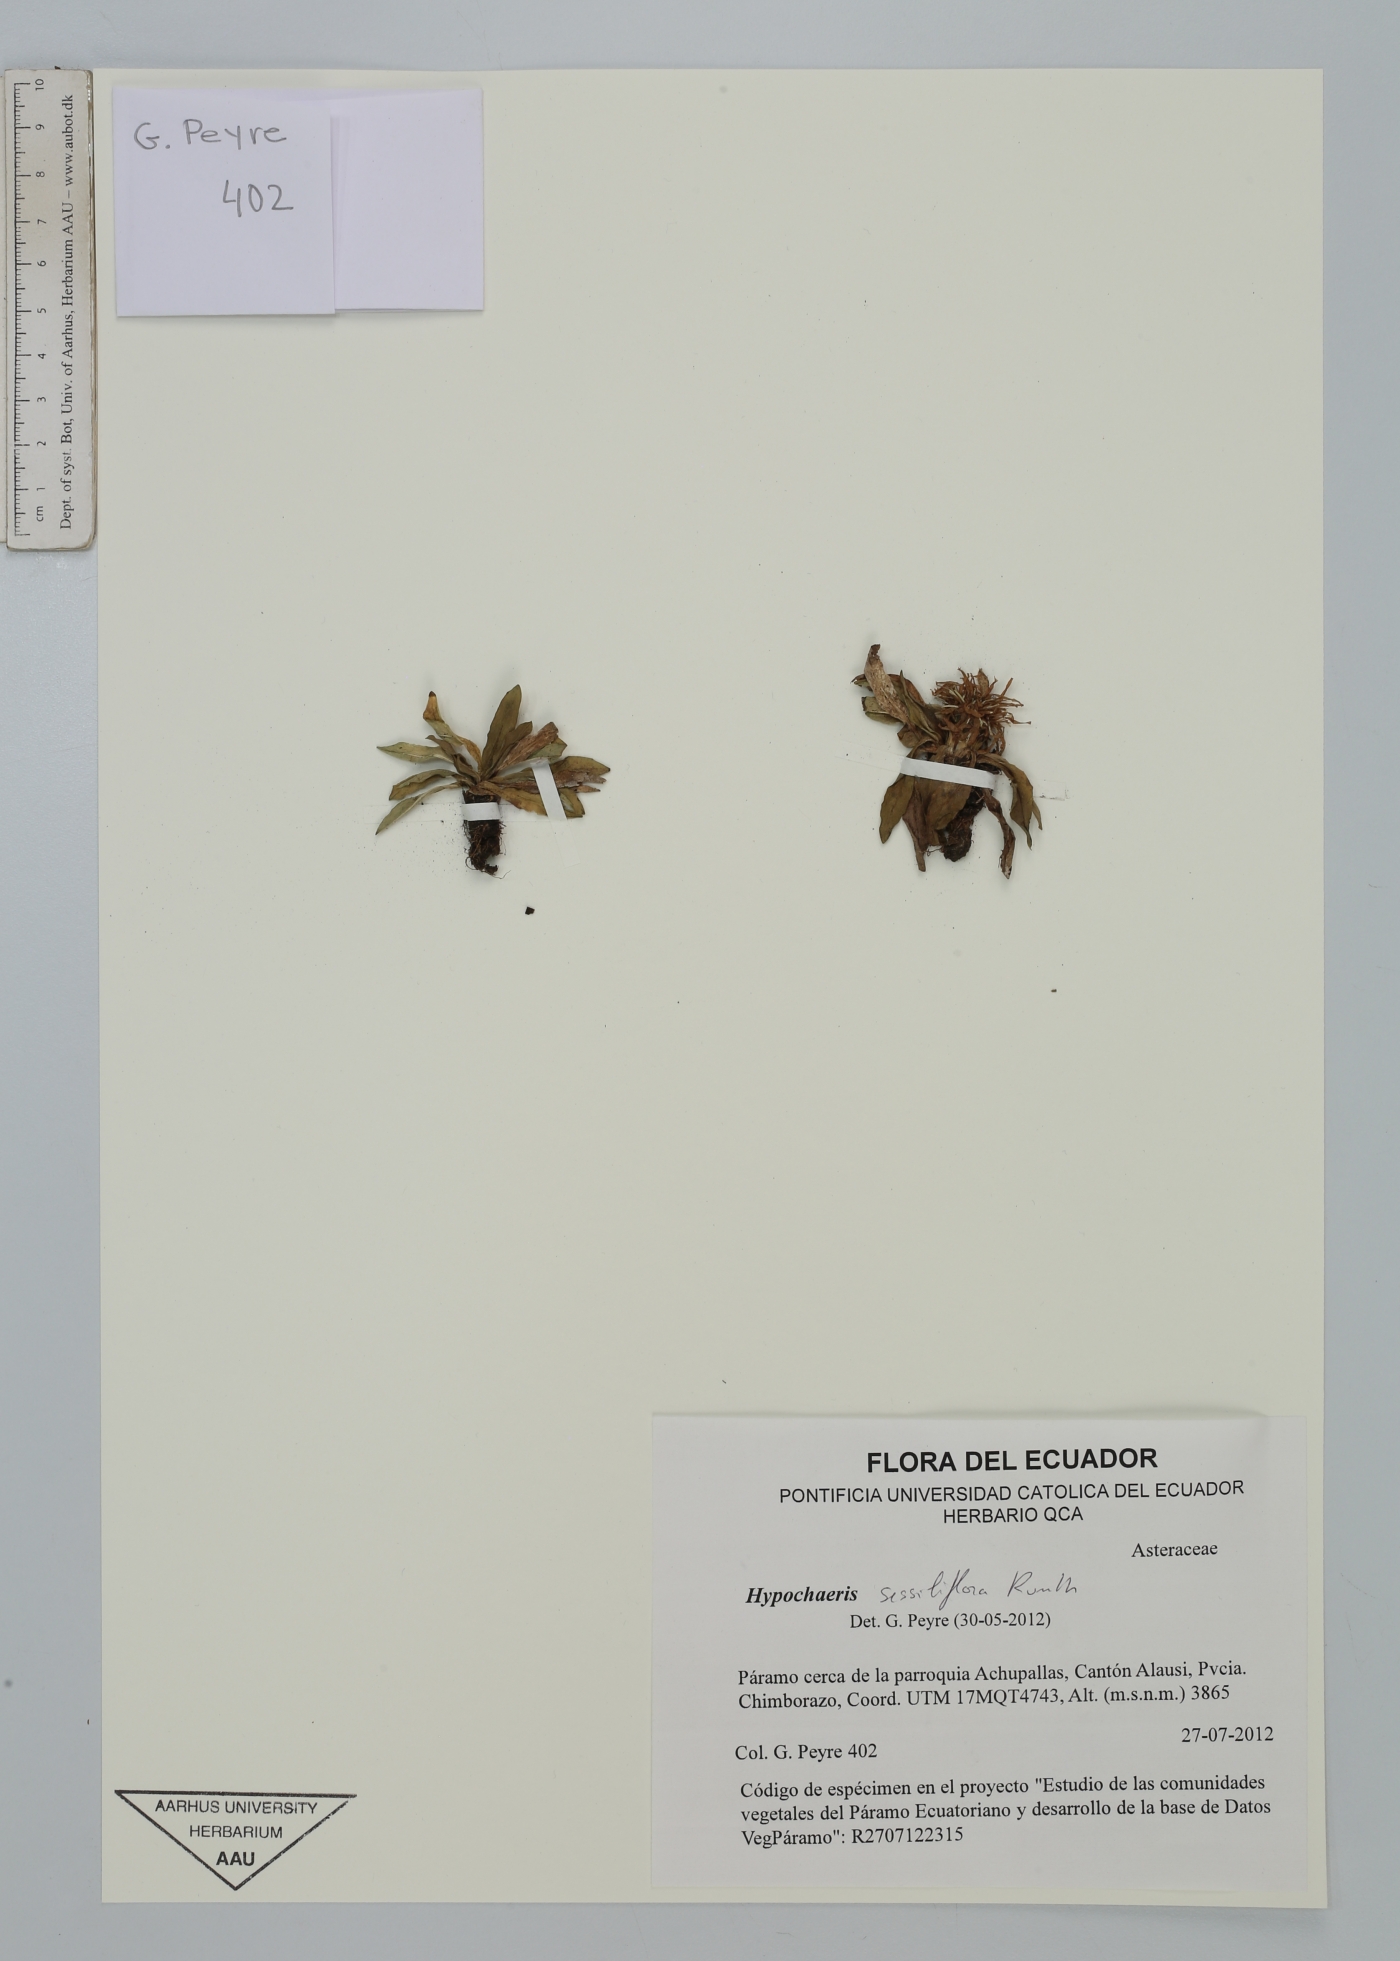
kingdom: Plantae
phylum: Tracheophyta
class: Magnoliopsida
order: Asterales
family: Asteraceae
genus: Hypochaeris
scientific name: Hypochaeris sessiliflora
